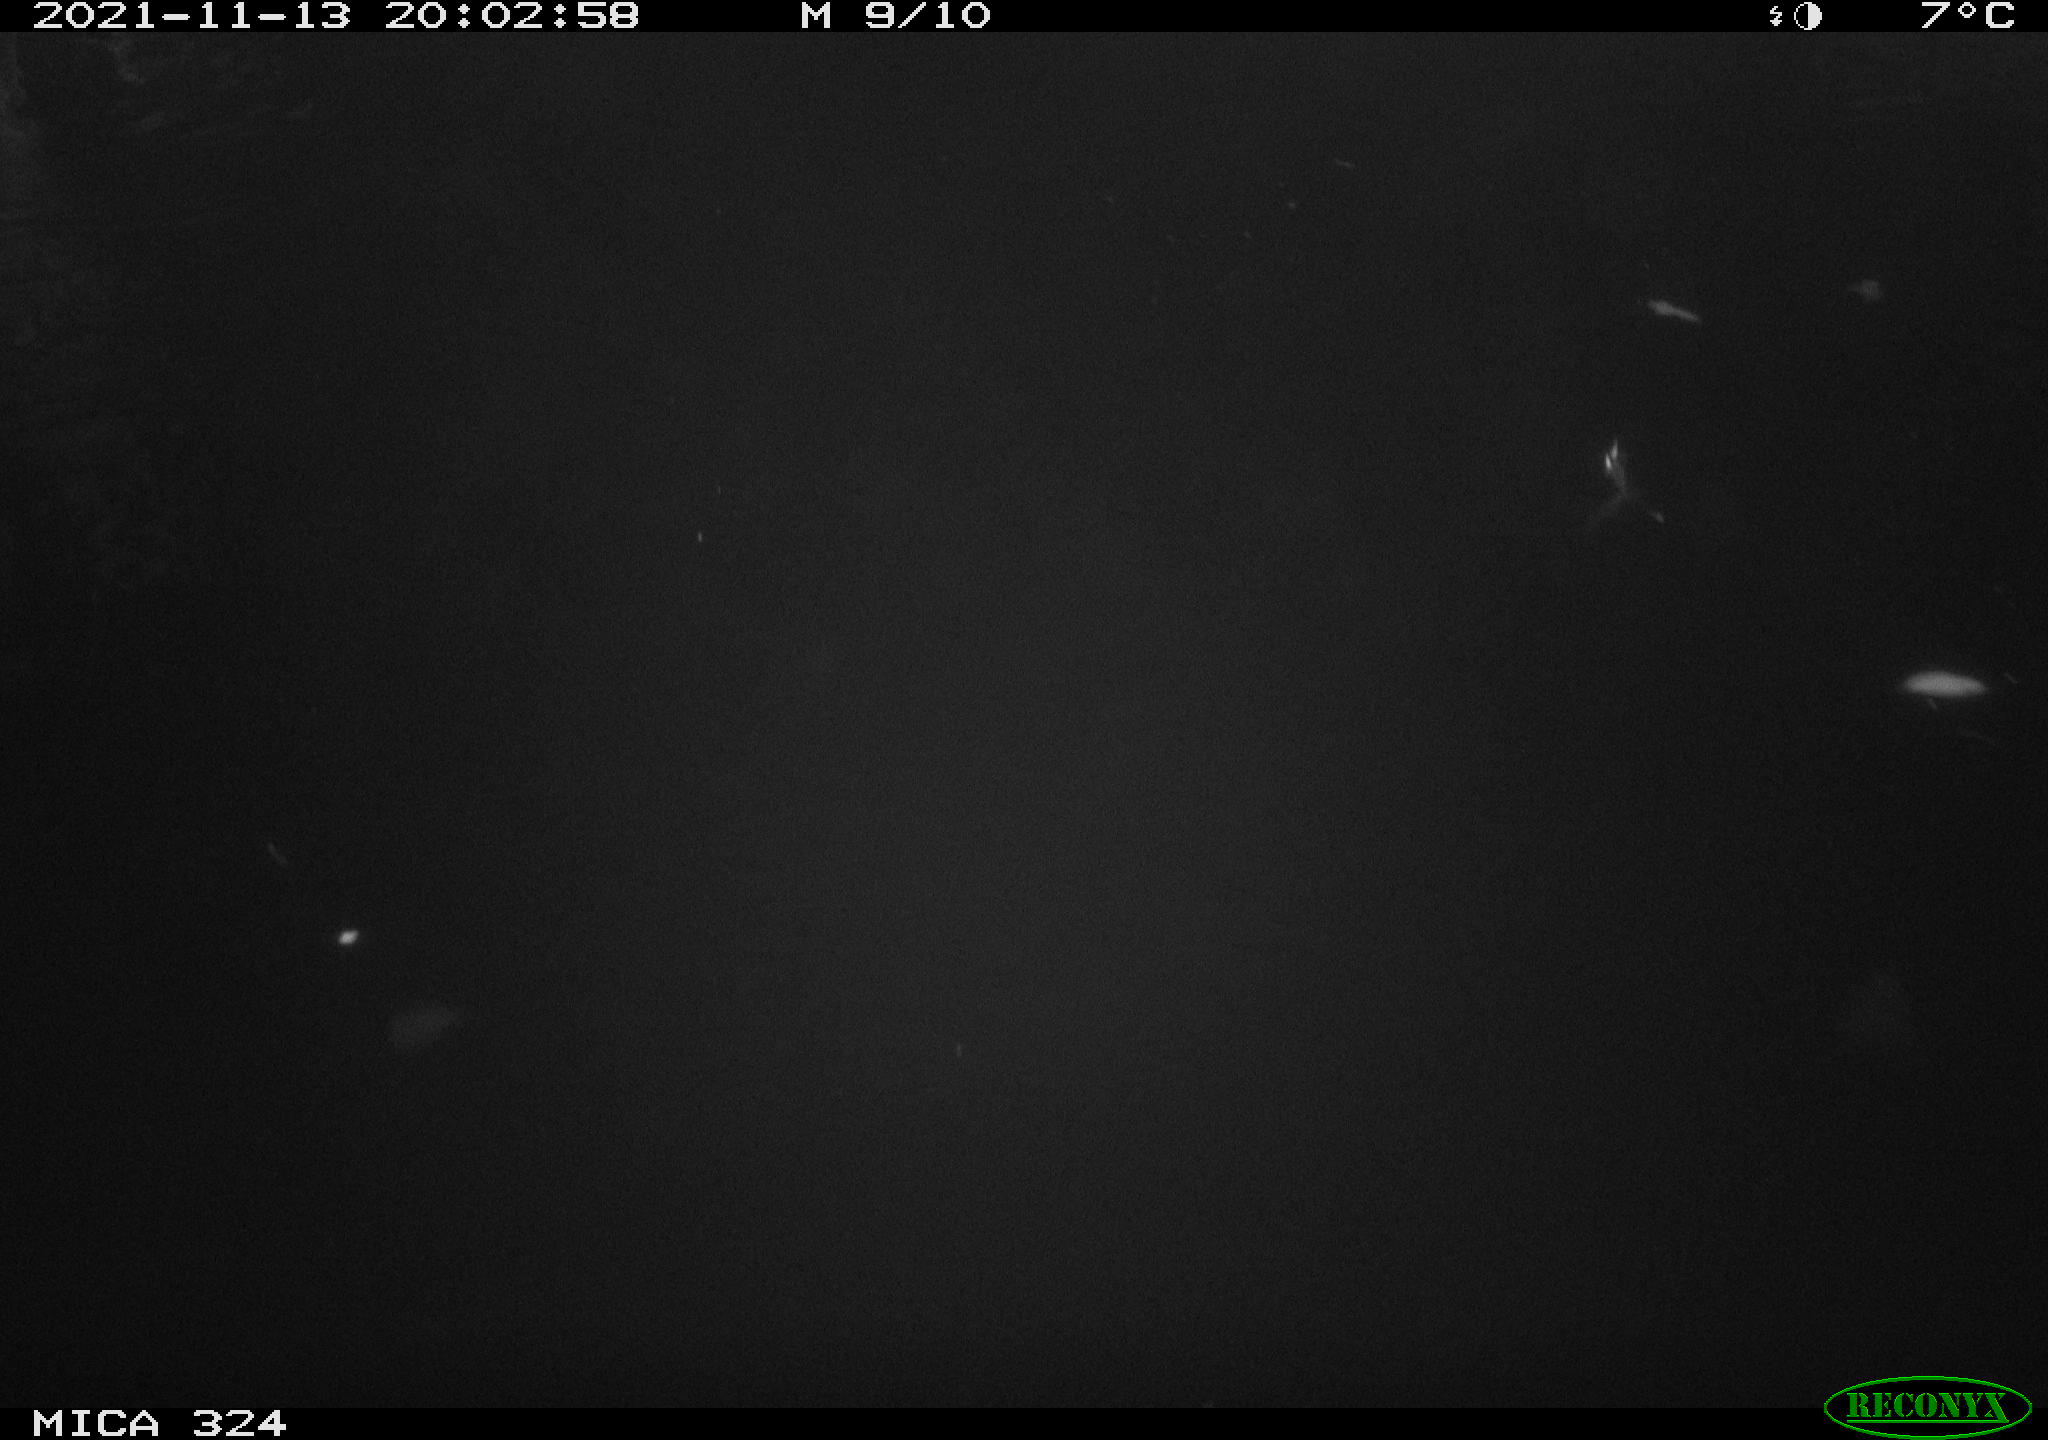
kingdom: Animalia
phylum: Chordata
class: Mammalia
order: Rodentia
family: Cricetidae
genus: Ondatra
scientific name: Ondatra zibethicus
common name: Muskrat
